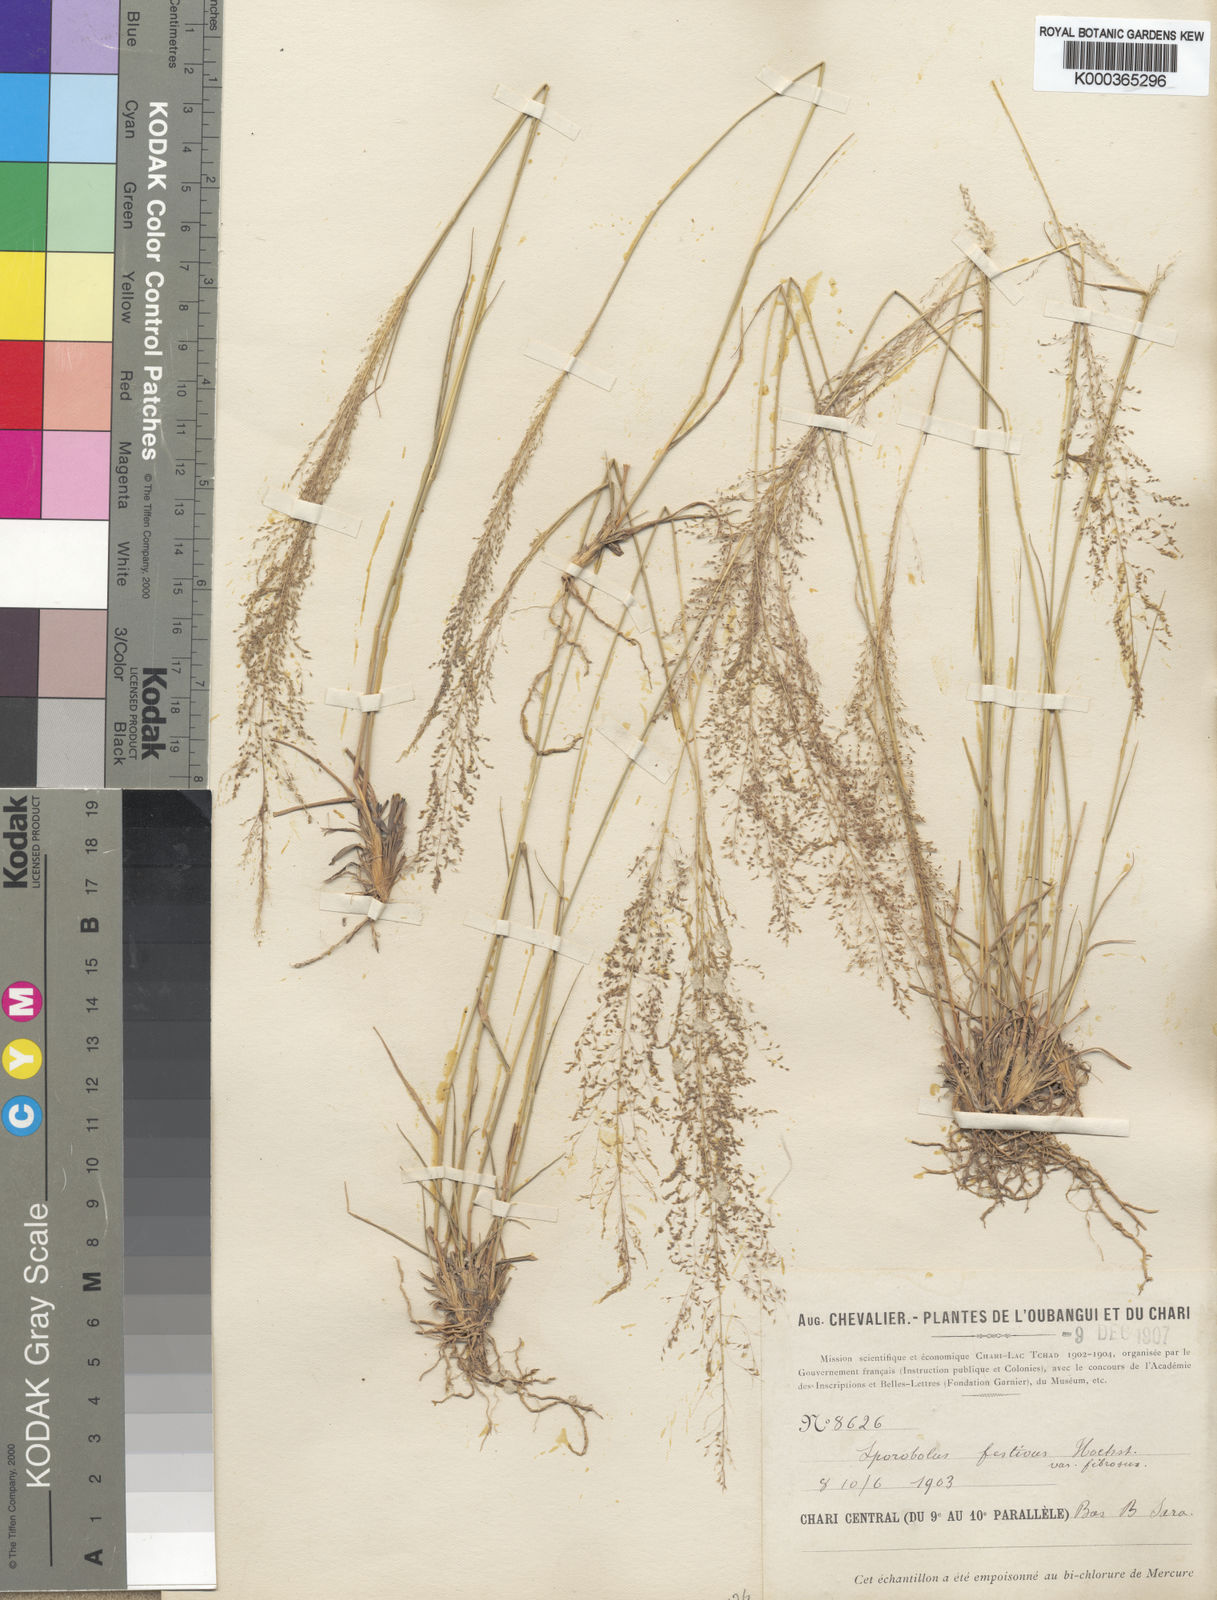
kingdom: Plantae
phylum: Tracheophyta
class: Liliopsida
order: Poales
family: Poaceae
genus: Sporobolus
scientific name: Sporobolus festivus
